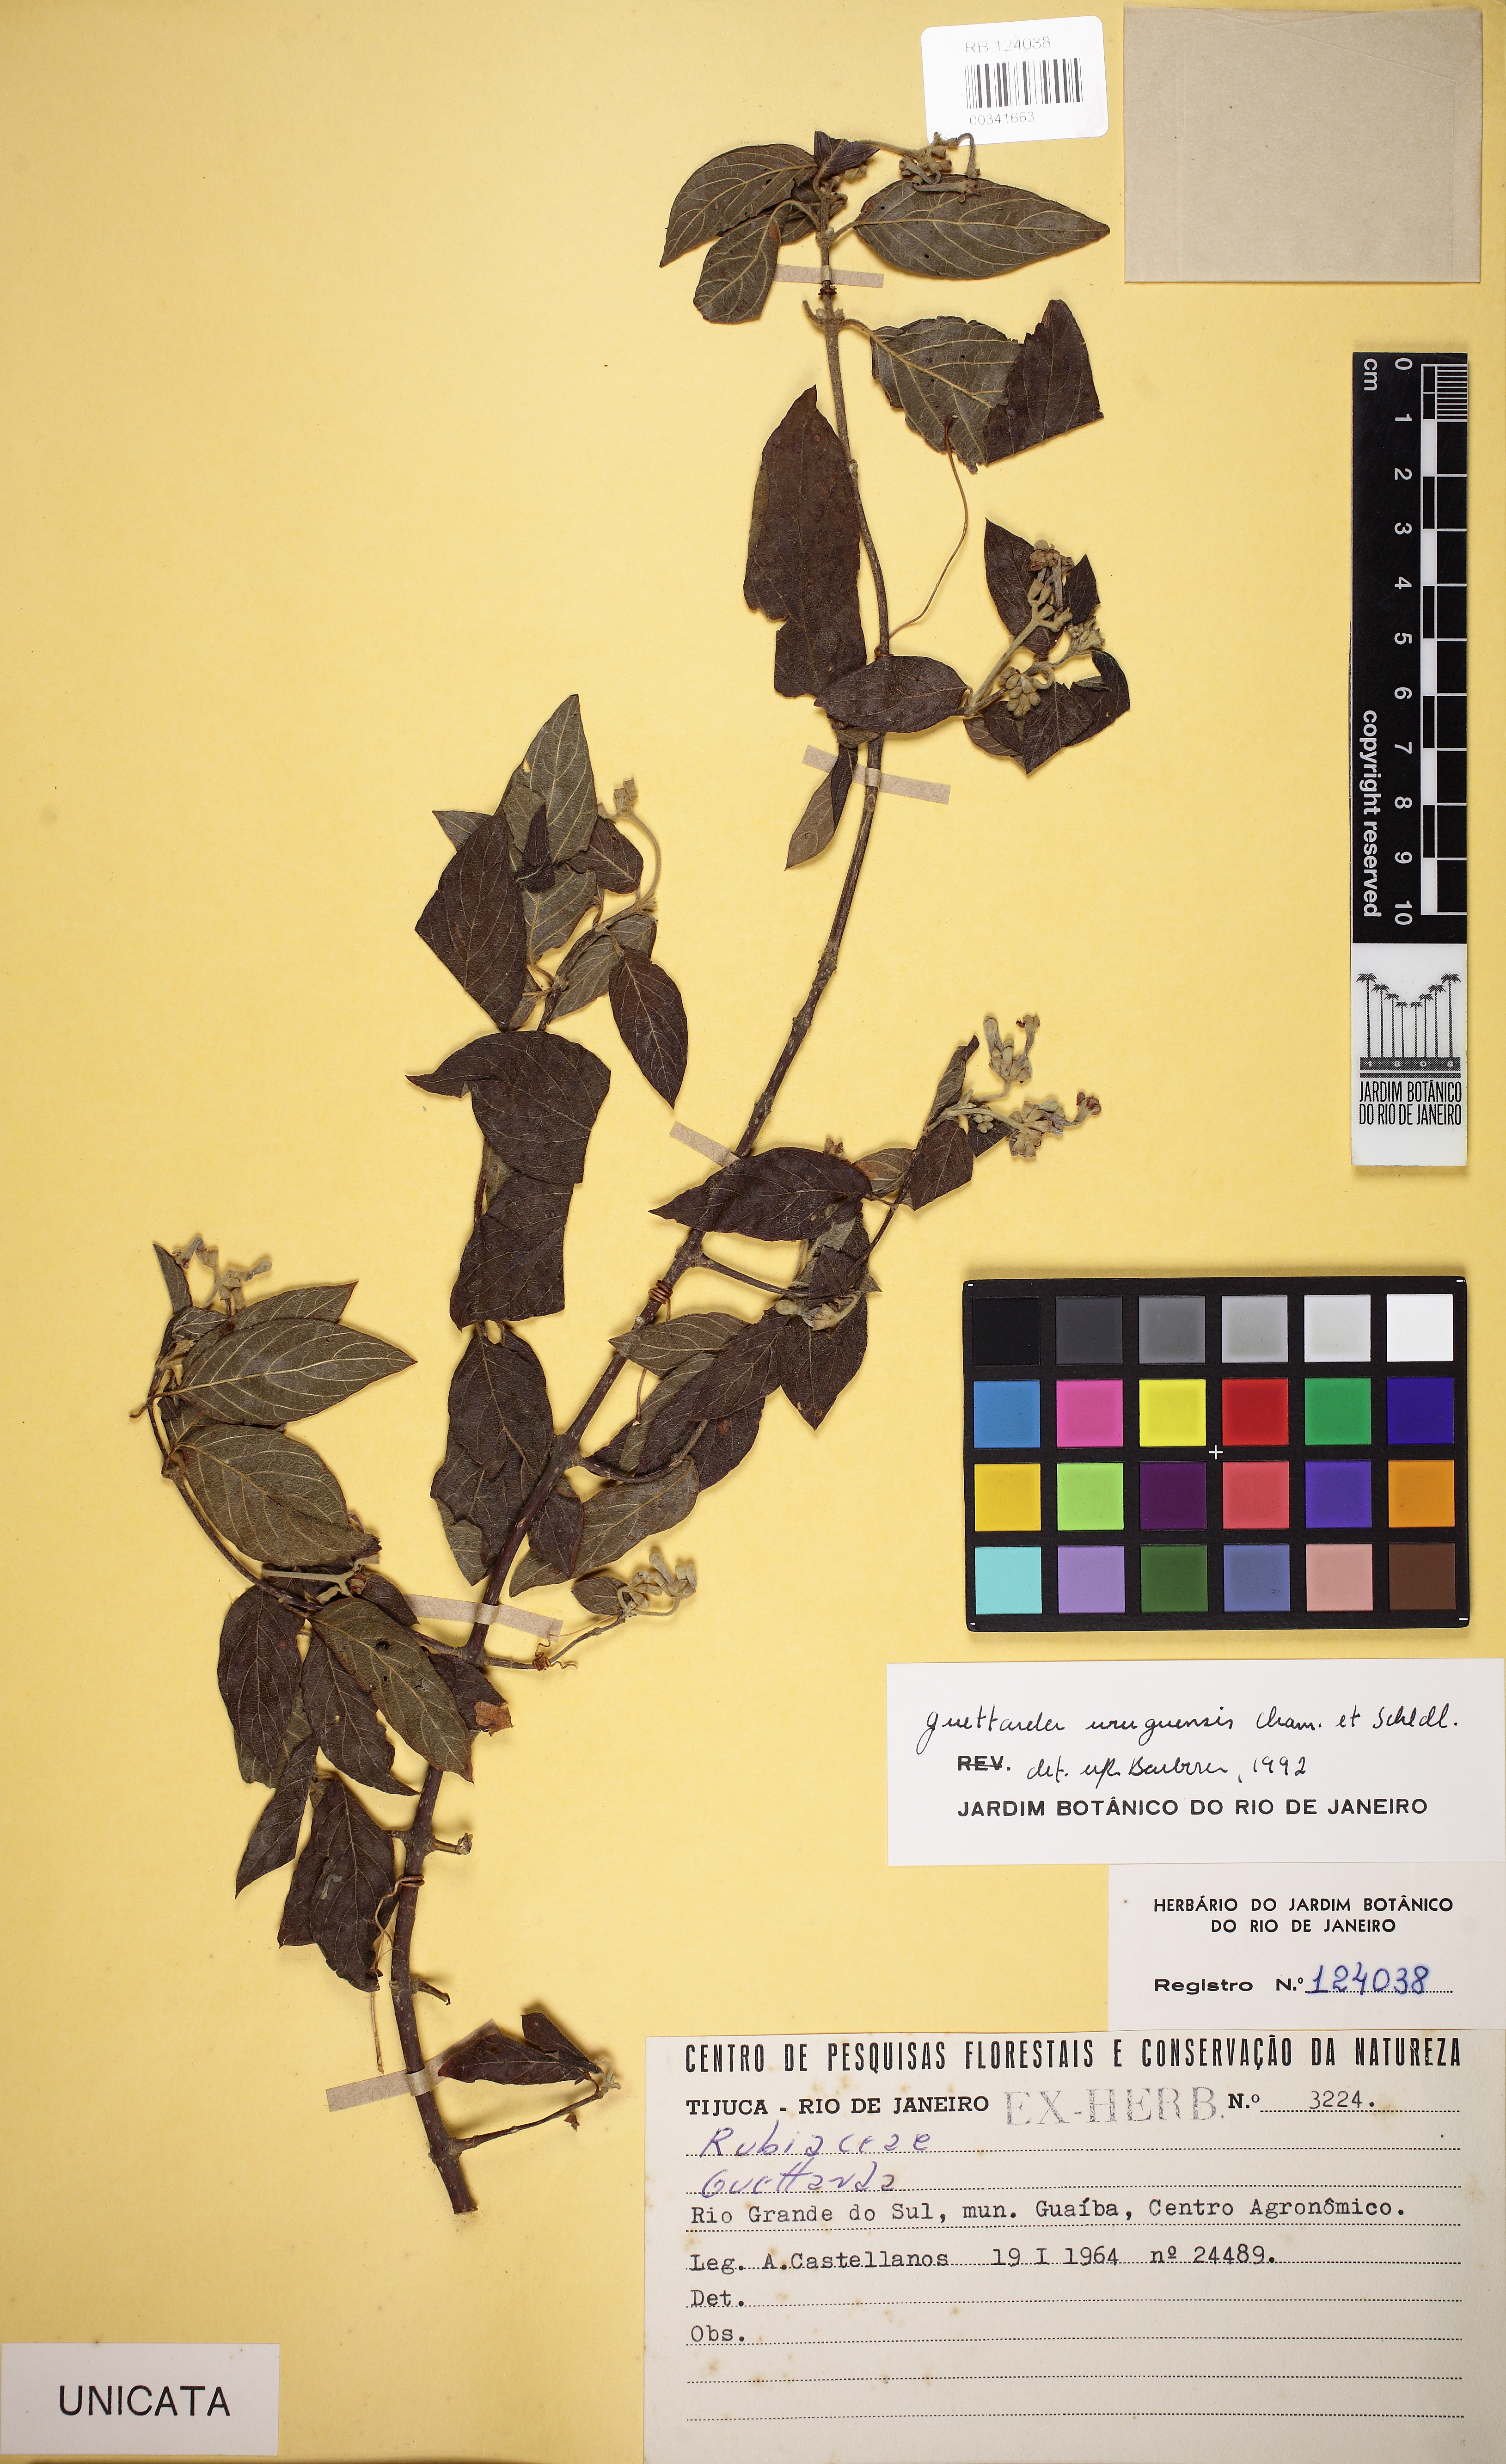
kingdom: Plantae
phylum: Tracheophyta
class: Magnoliopsida
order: Gentianales
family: Rubiaceae
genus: Guettarda
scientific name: Guettarda uruguensis
